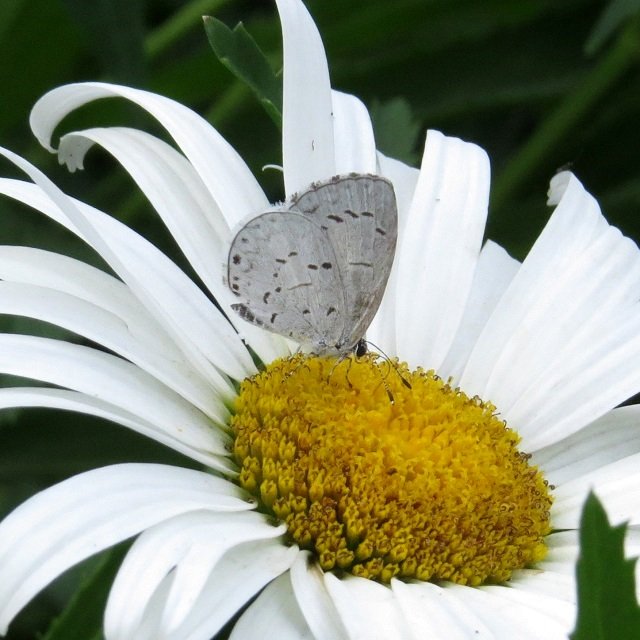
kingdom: Animalia
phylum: Arthropoda
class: Insecta
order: Lepidoptera
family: Lycaenidae
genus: Celastrina
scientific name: Celastrina
